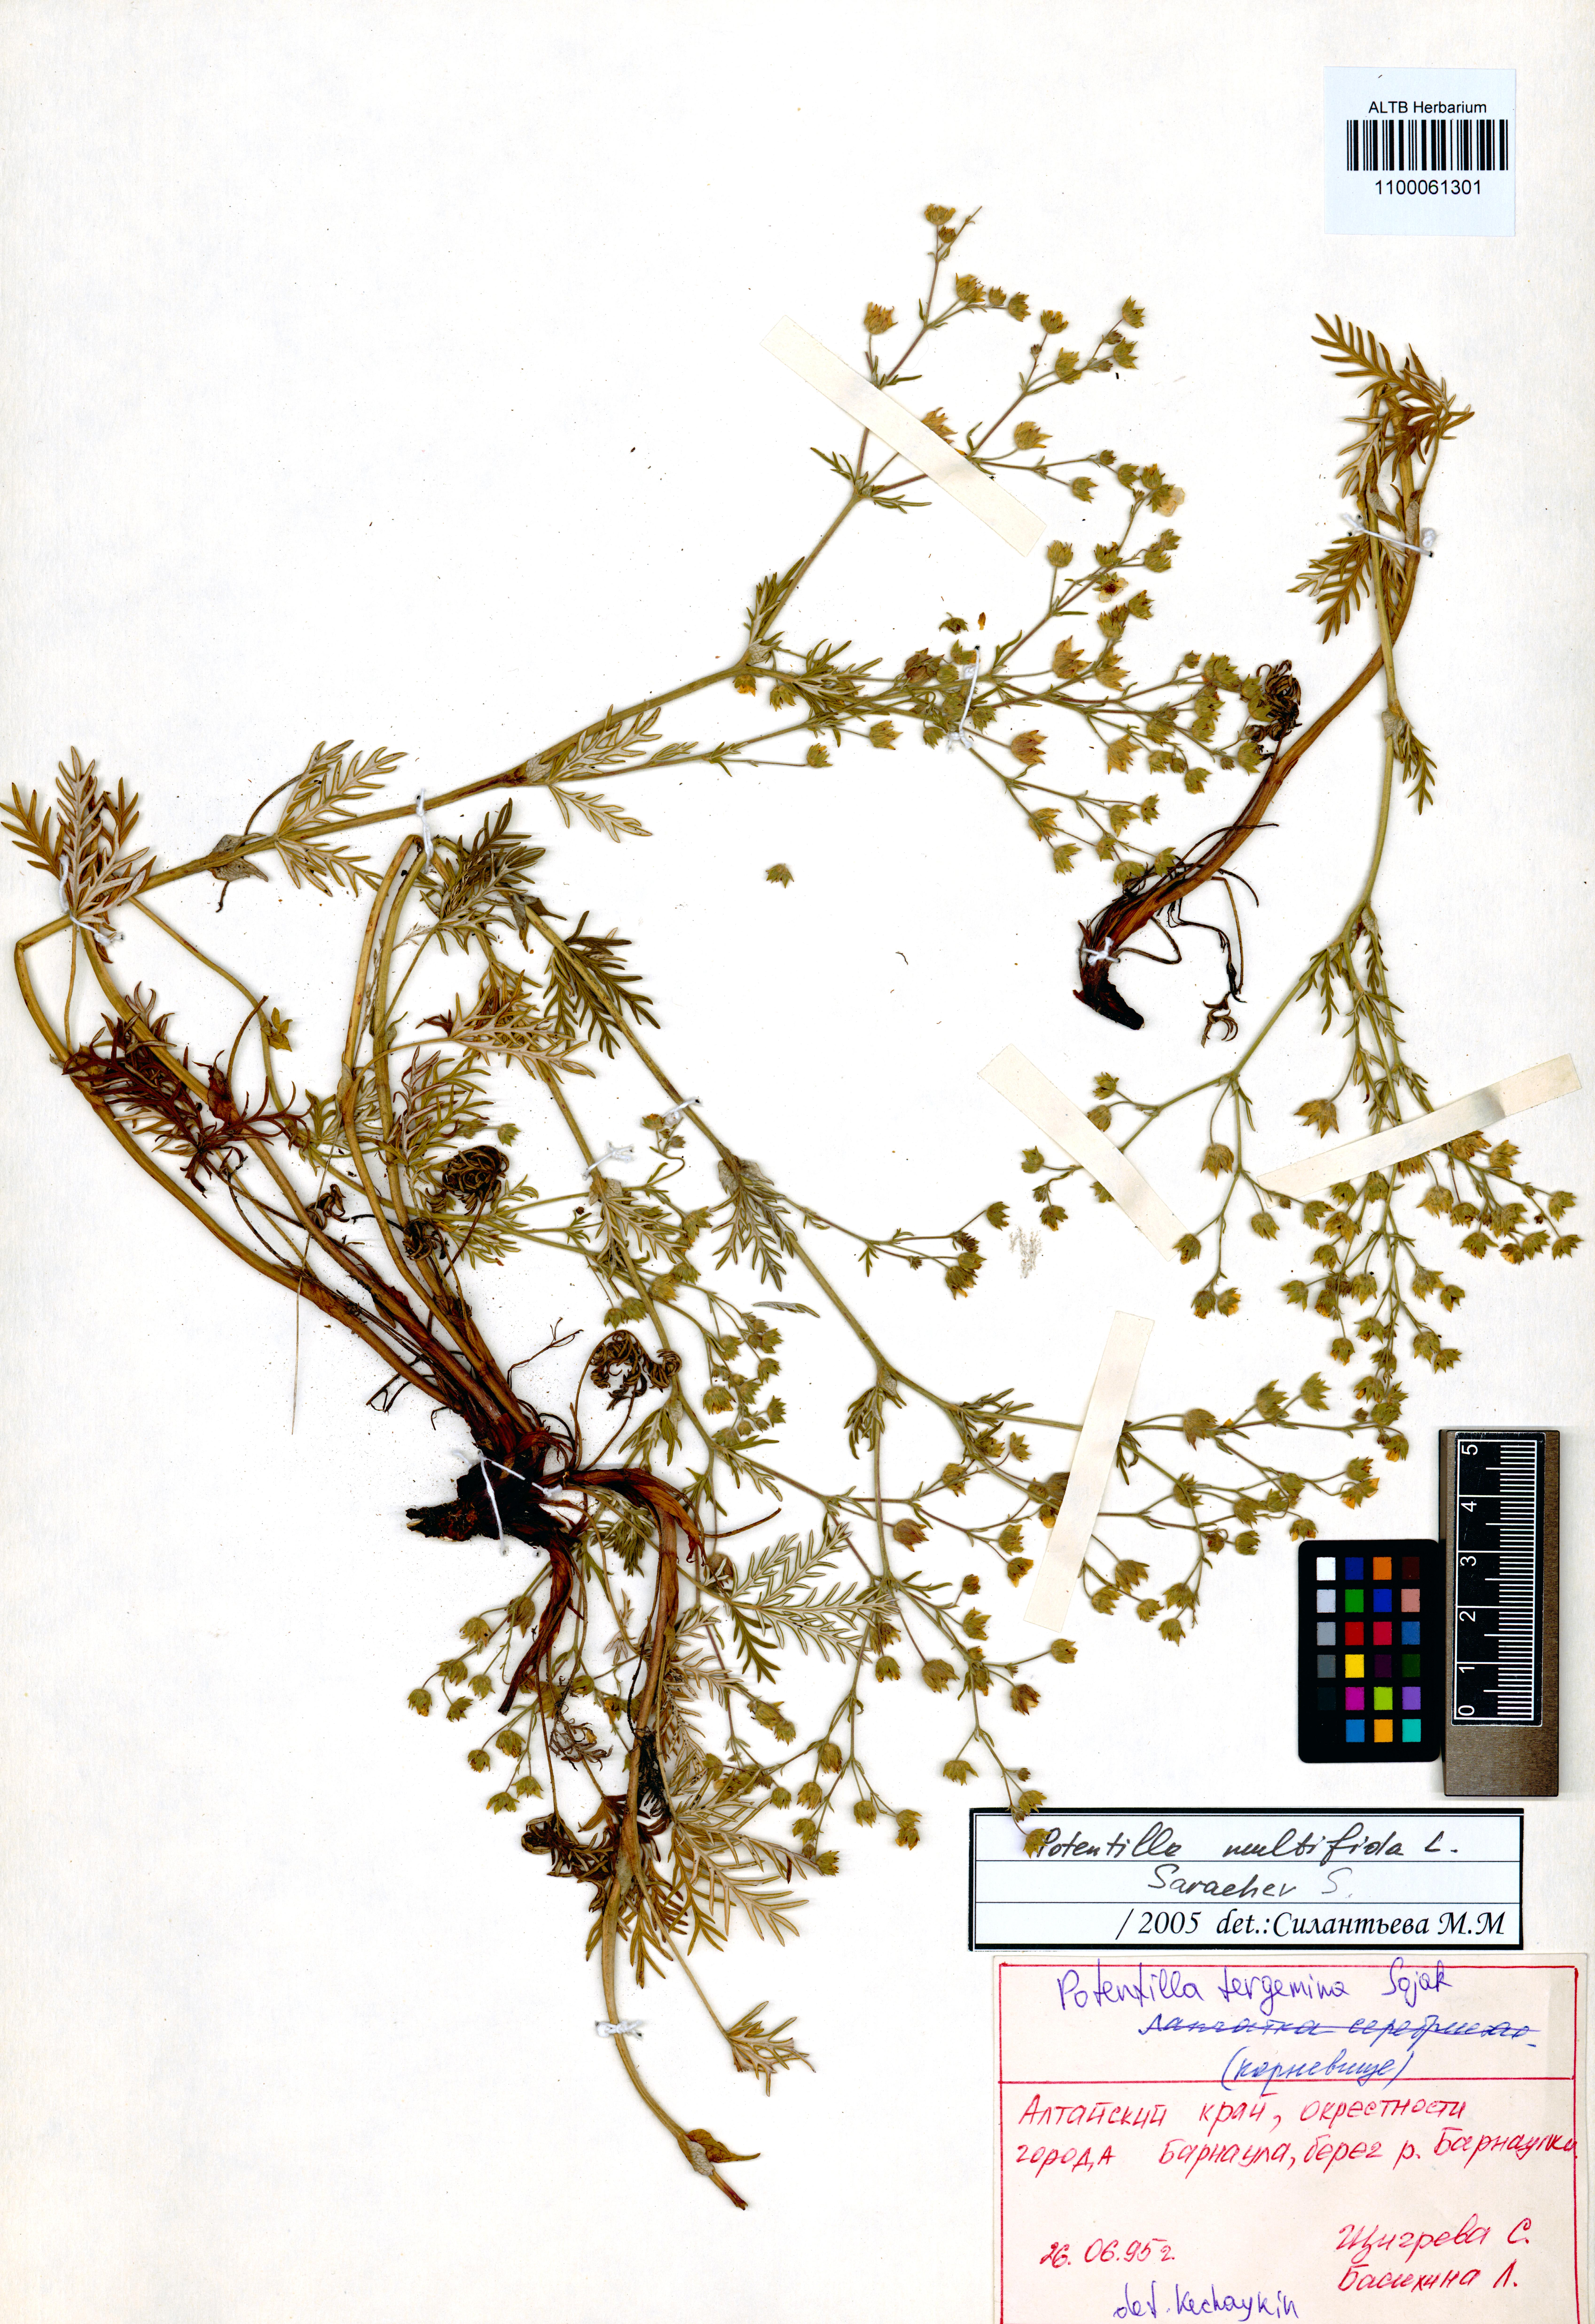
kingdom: Plantae
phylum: Tracheophyta
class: Magnoliopsida
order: Rosales
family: Rosaceae
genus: Potentilla
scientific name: Potentilla tergemina
